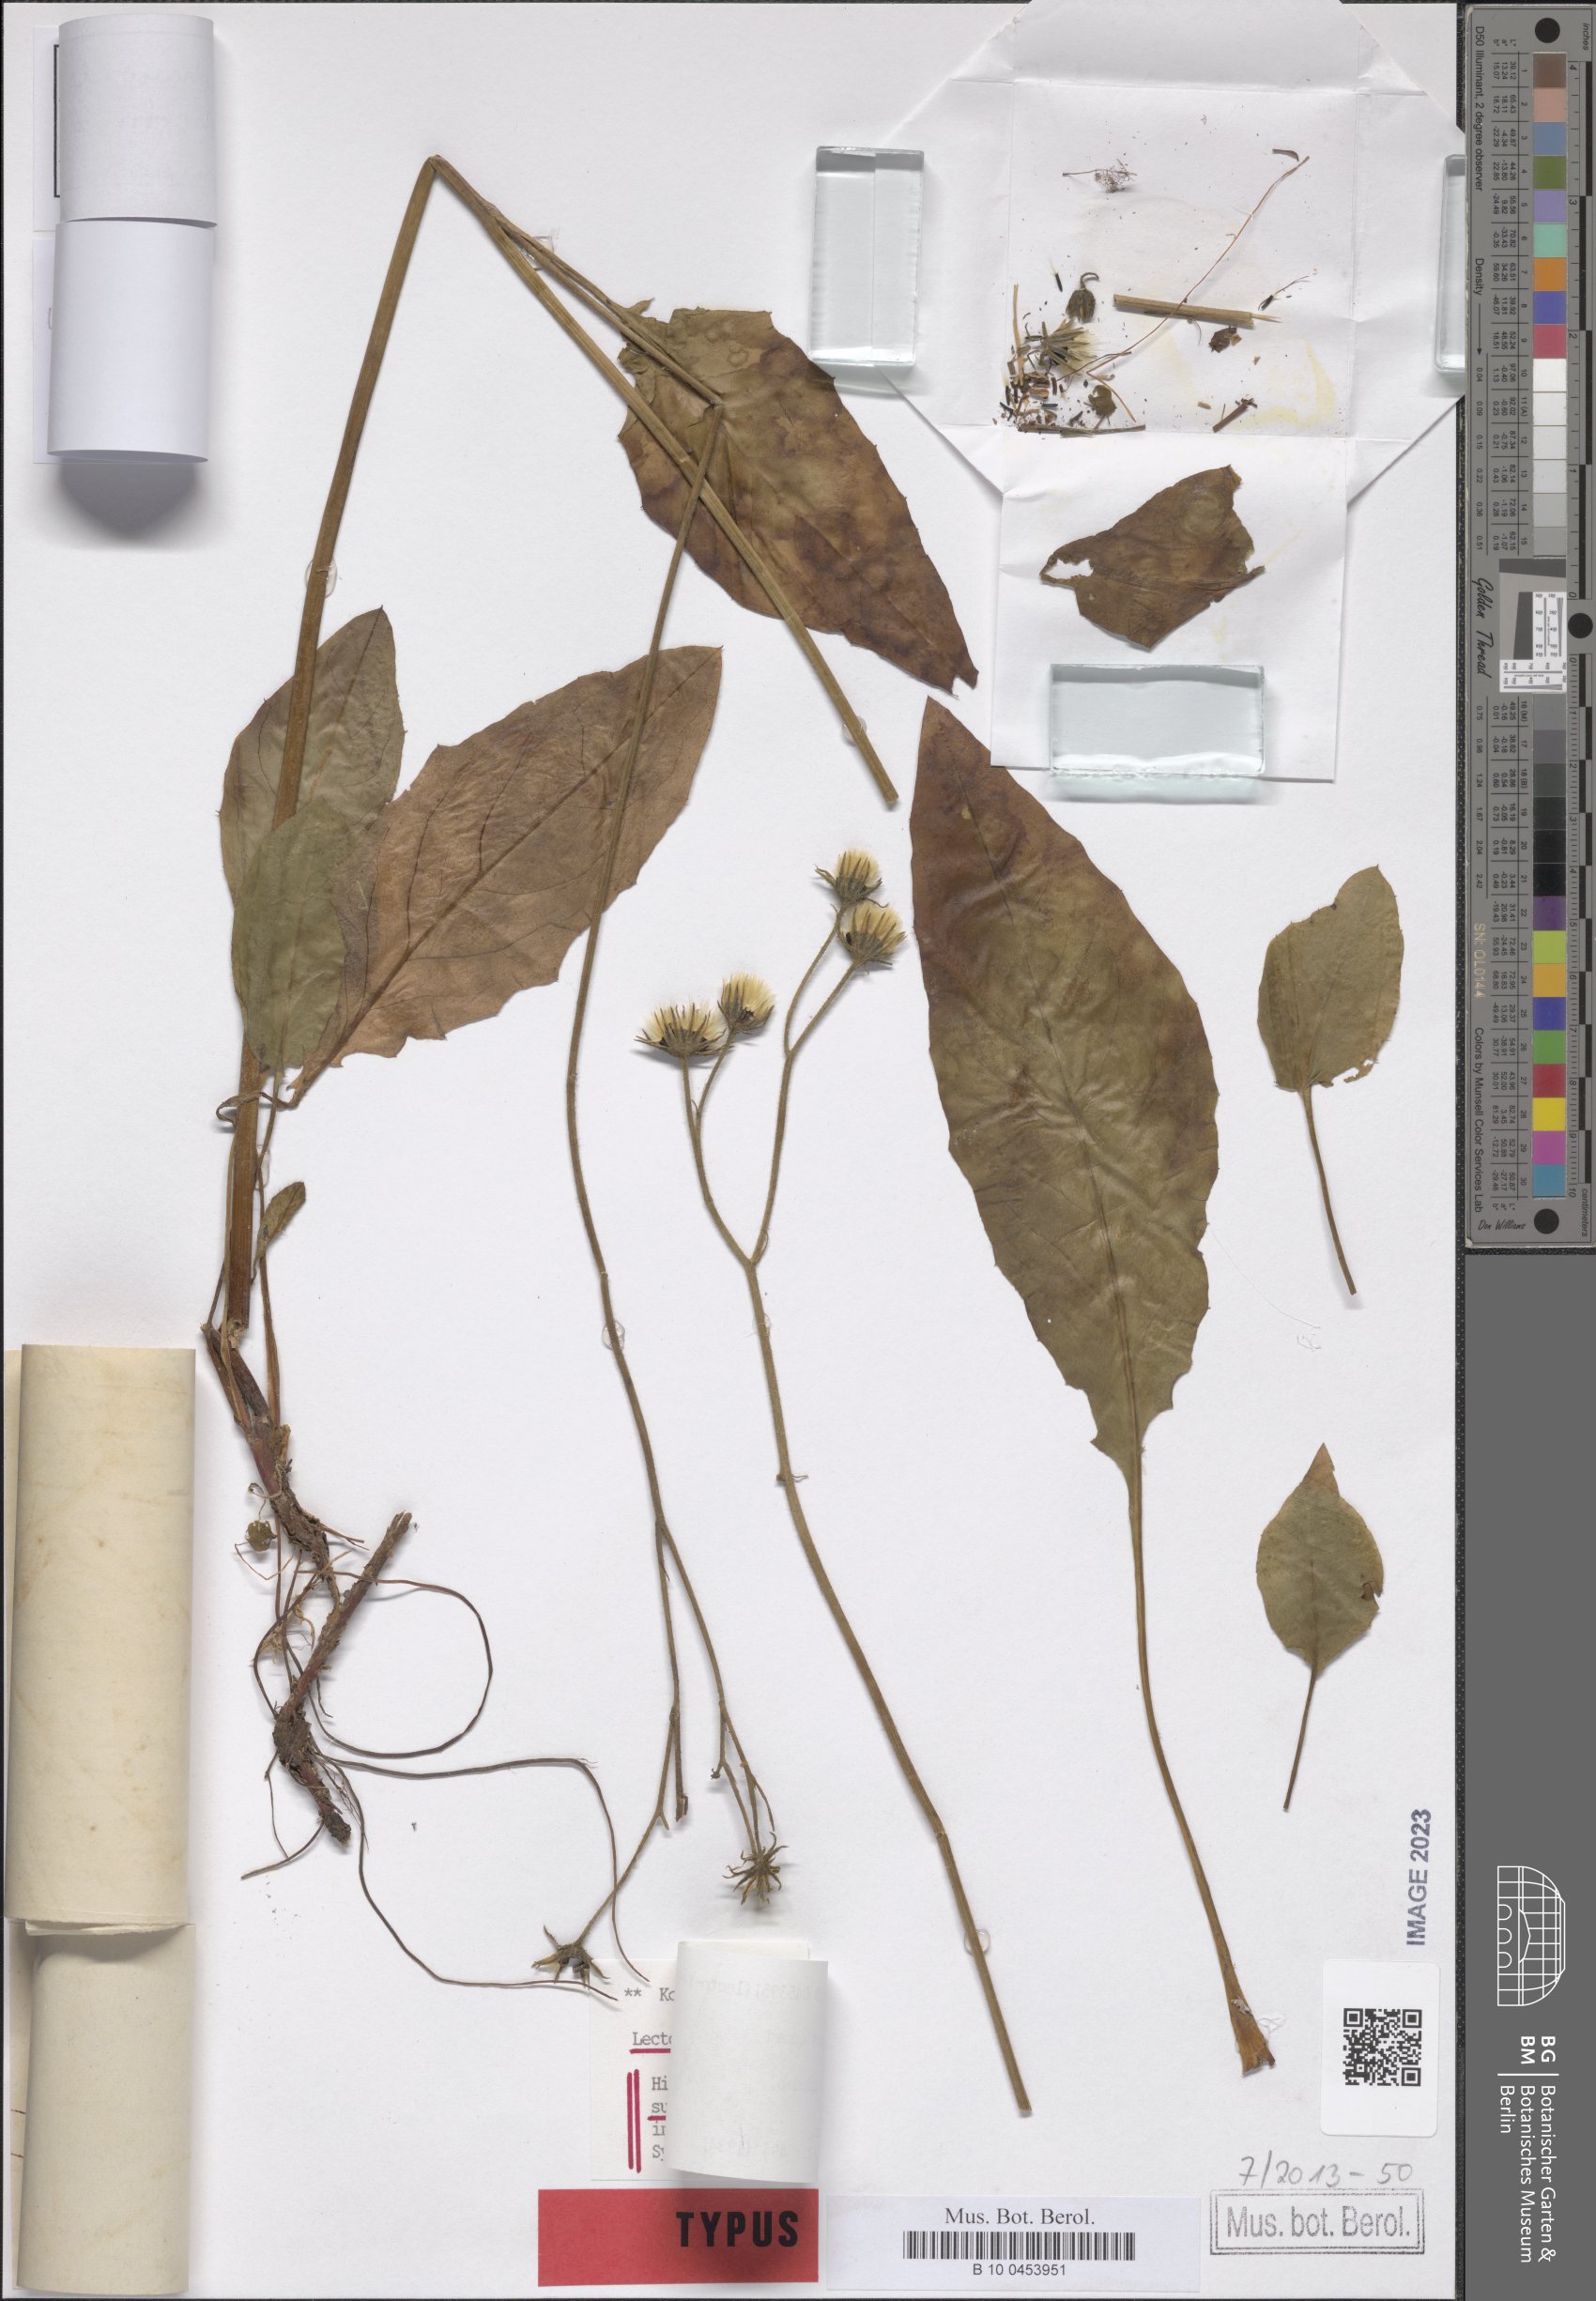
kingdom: Plantae
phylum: Tracheophyta
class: Magnoliopsida
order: Asterales
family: Asteraceae
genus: Hieracium
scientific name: Hieracium lehbertii
